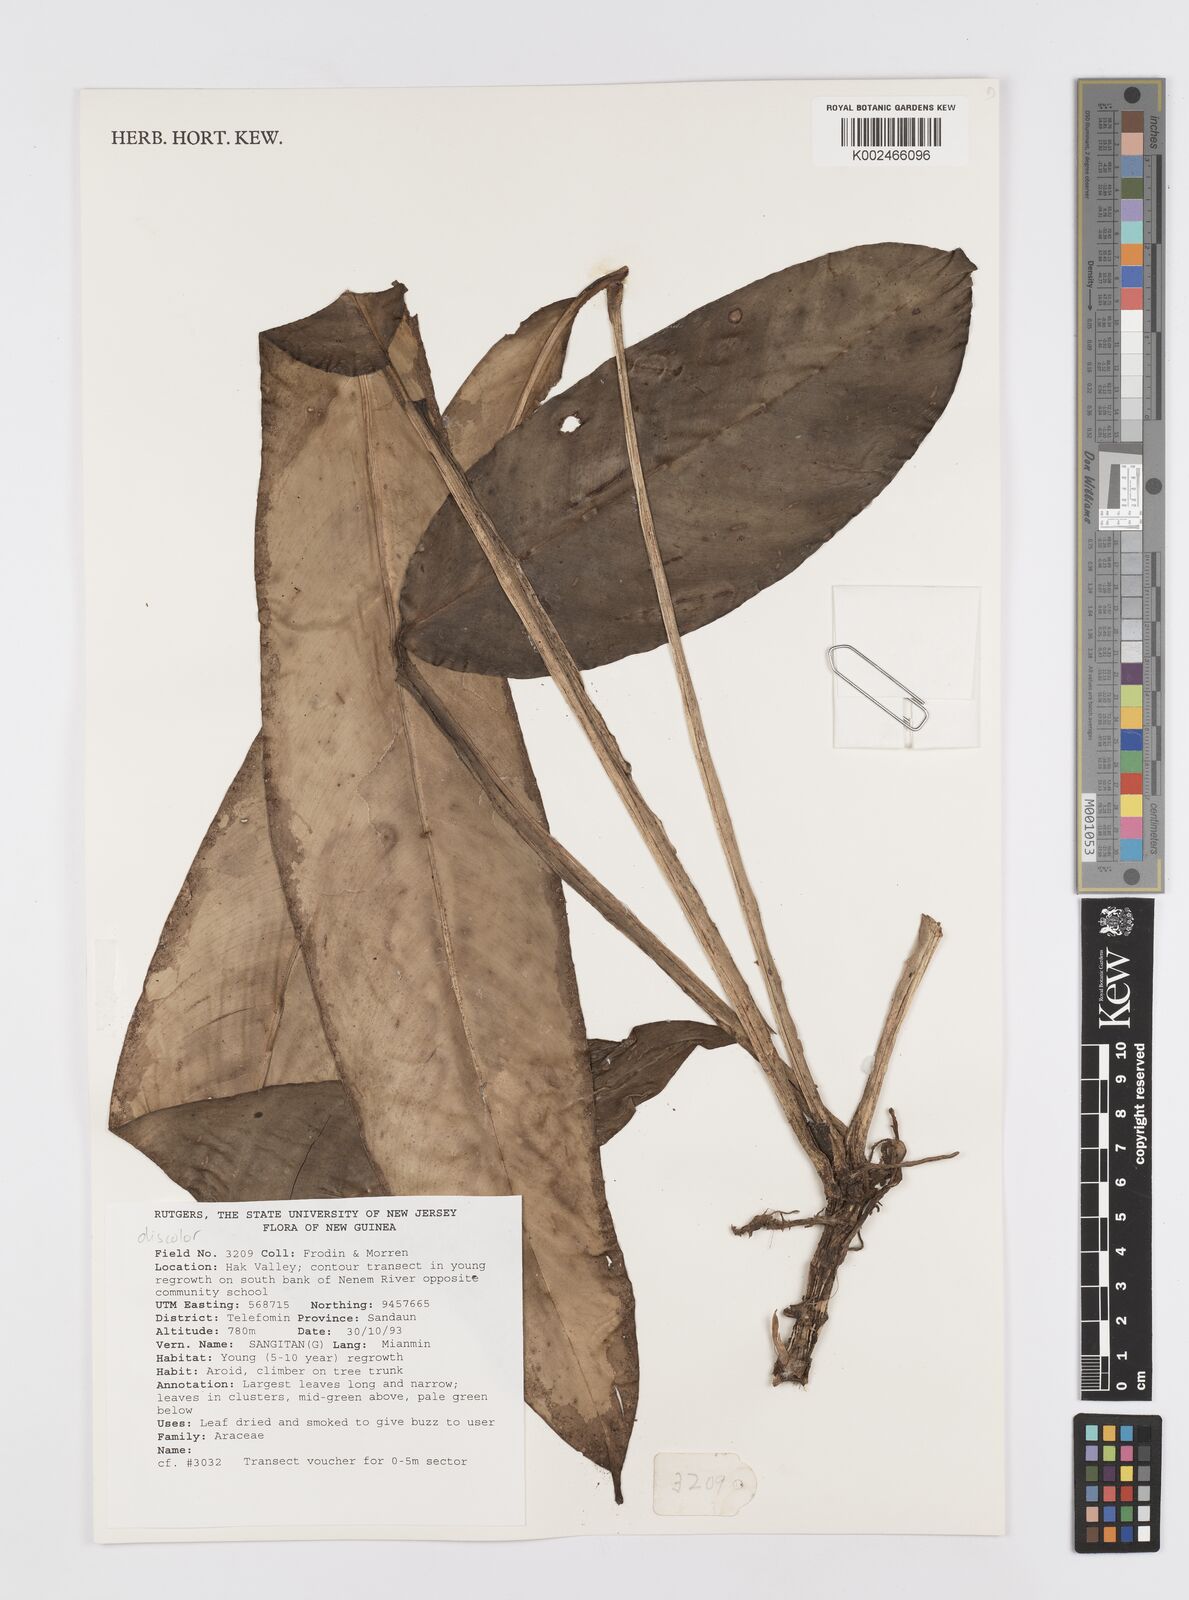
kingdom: Plantae
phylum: Tracheophyta
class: Liliopsida
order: Alismatales
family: Araceae
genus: Rhaphidophora
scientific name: Rhaphidophora discolor
